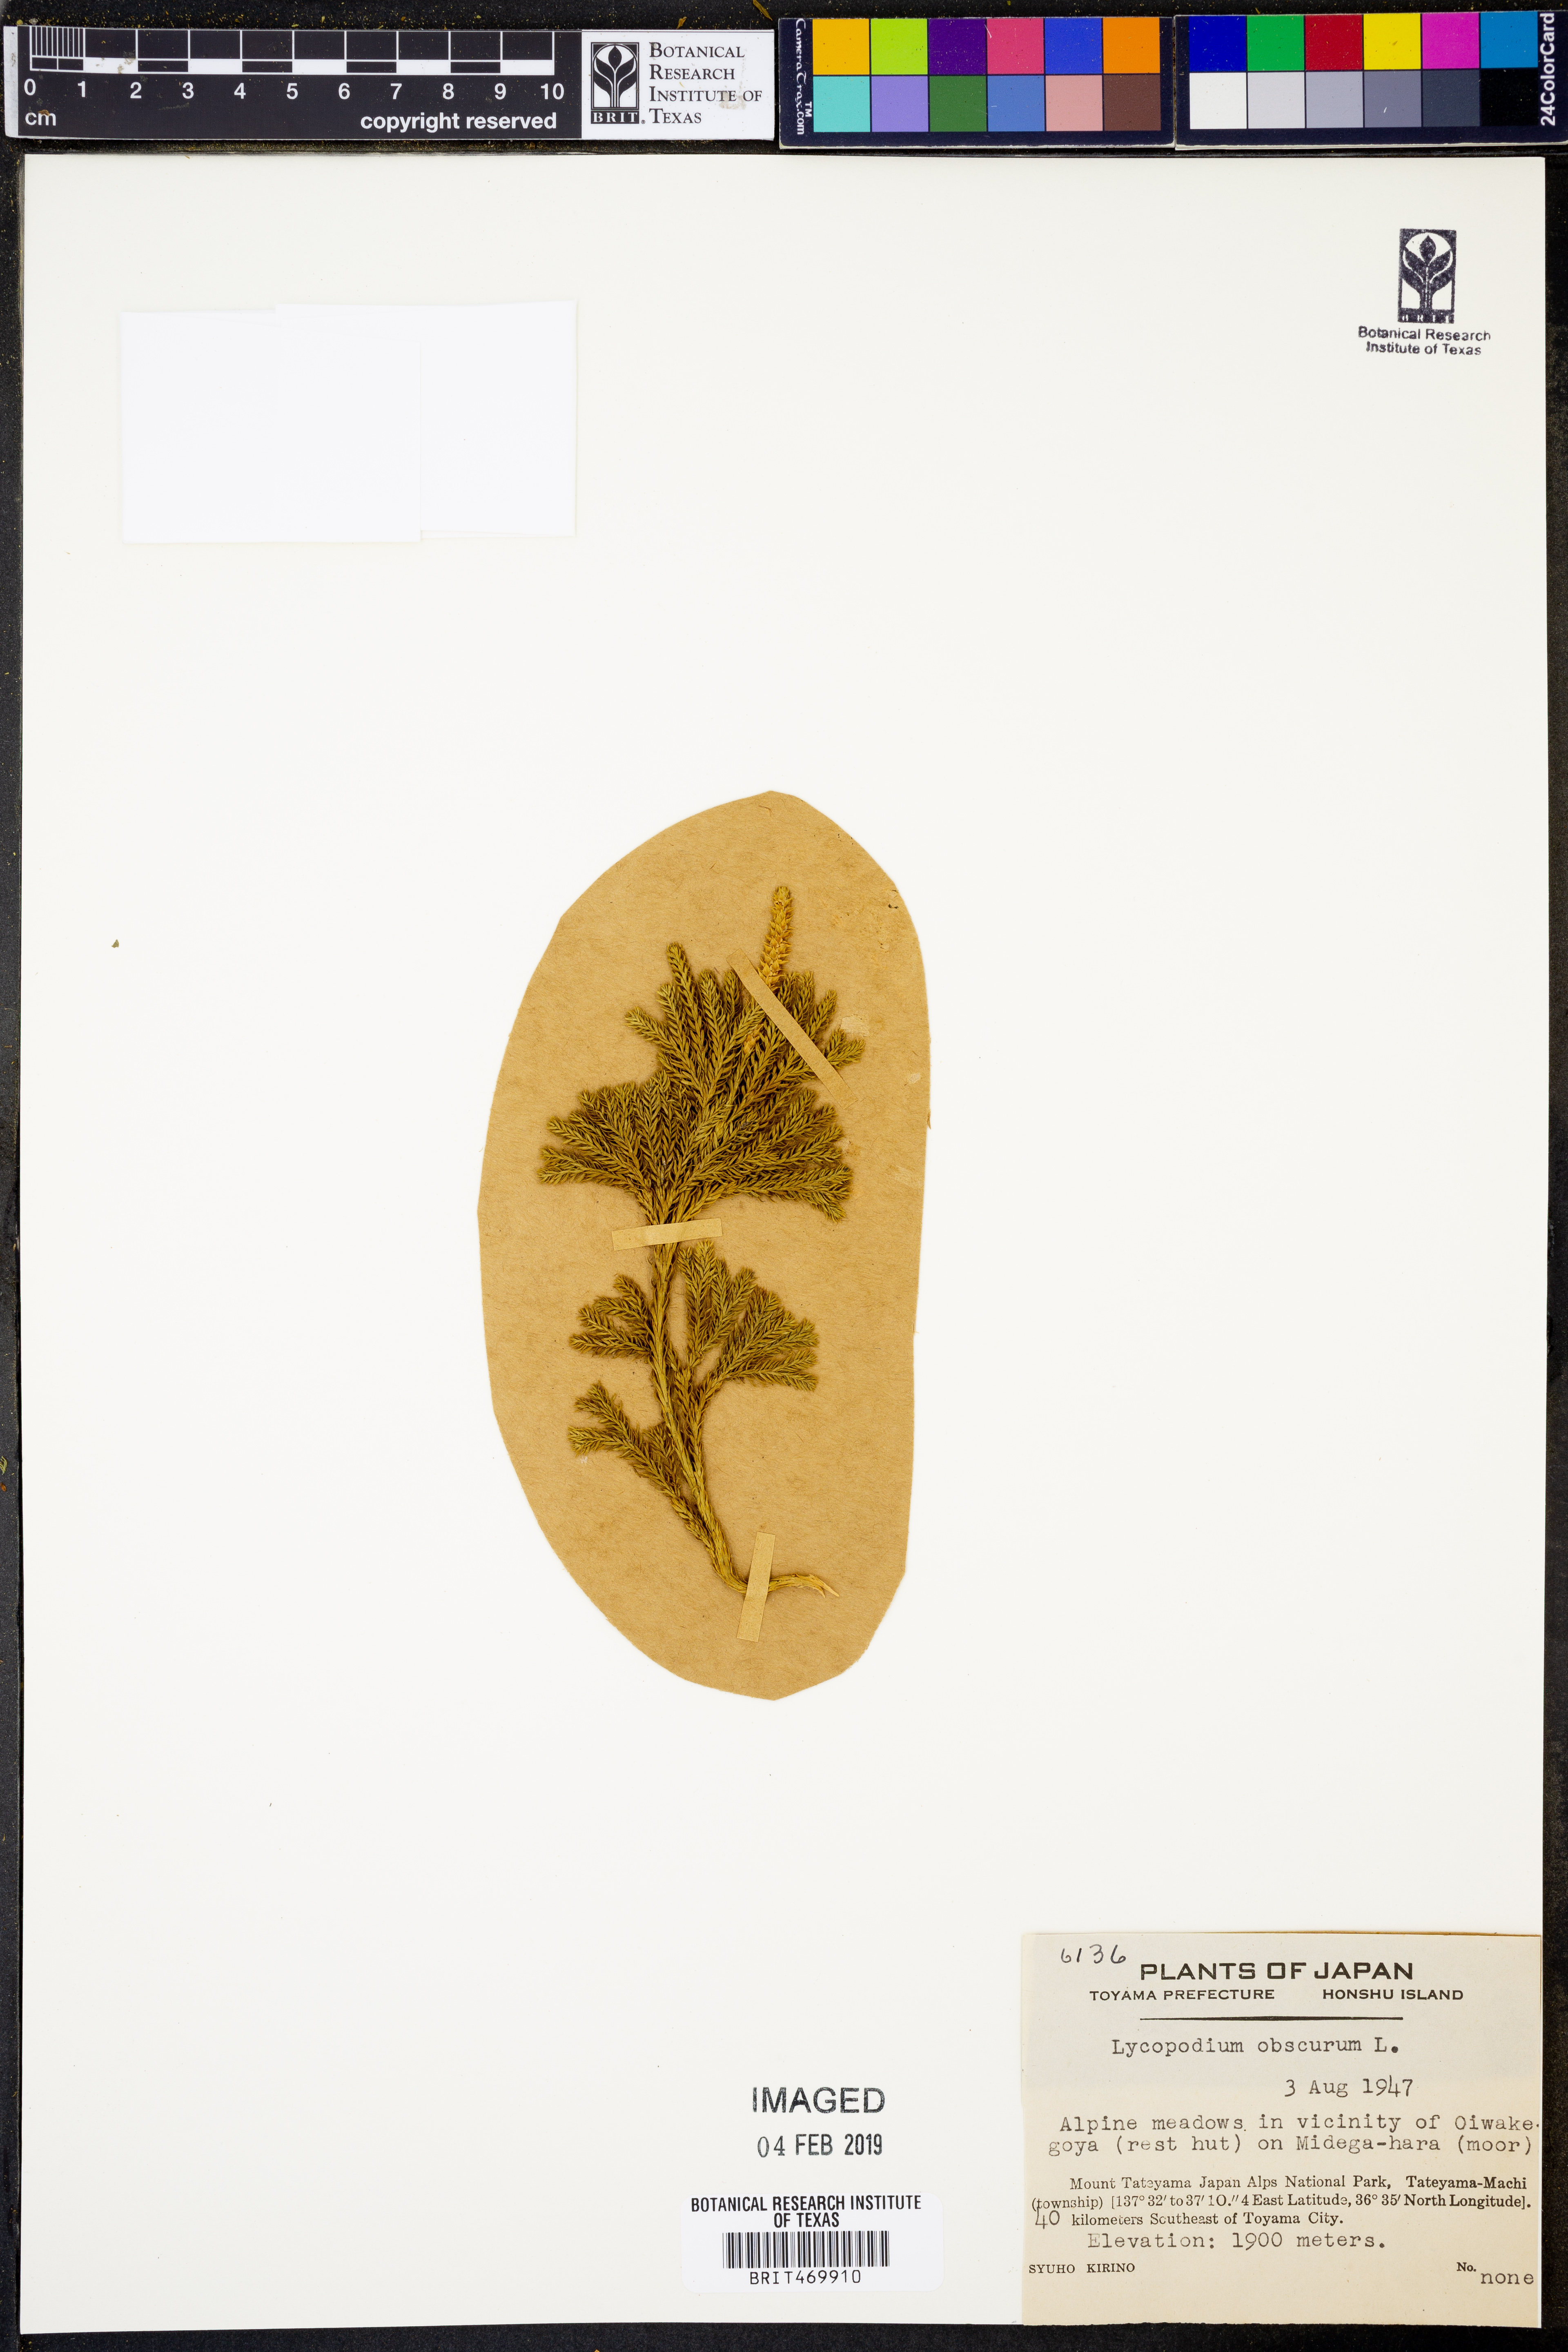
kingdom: Plantae
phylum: Tracheophyta
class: Lycopodiopsida
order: Lycopodiales
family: Lycopodiaceae
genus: Dendrolycopodium
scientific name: Dendrolycopodium obscurum
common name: Common ground-pine
